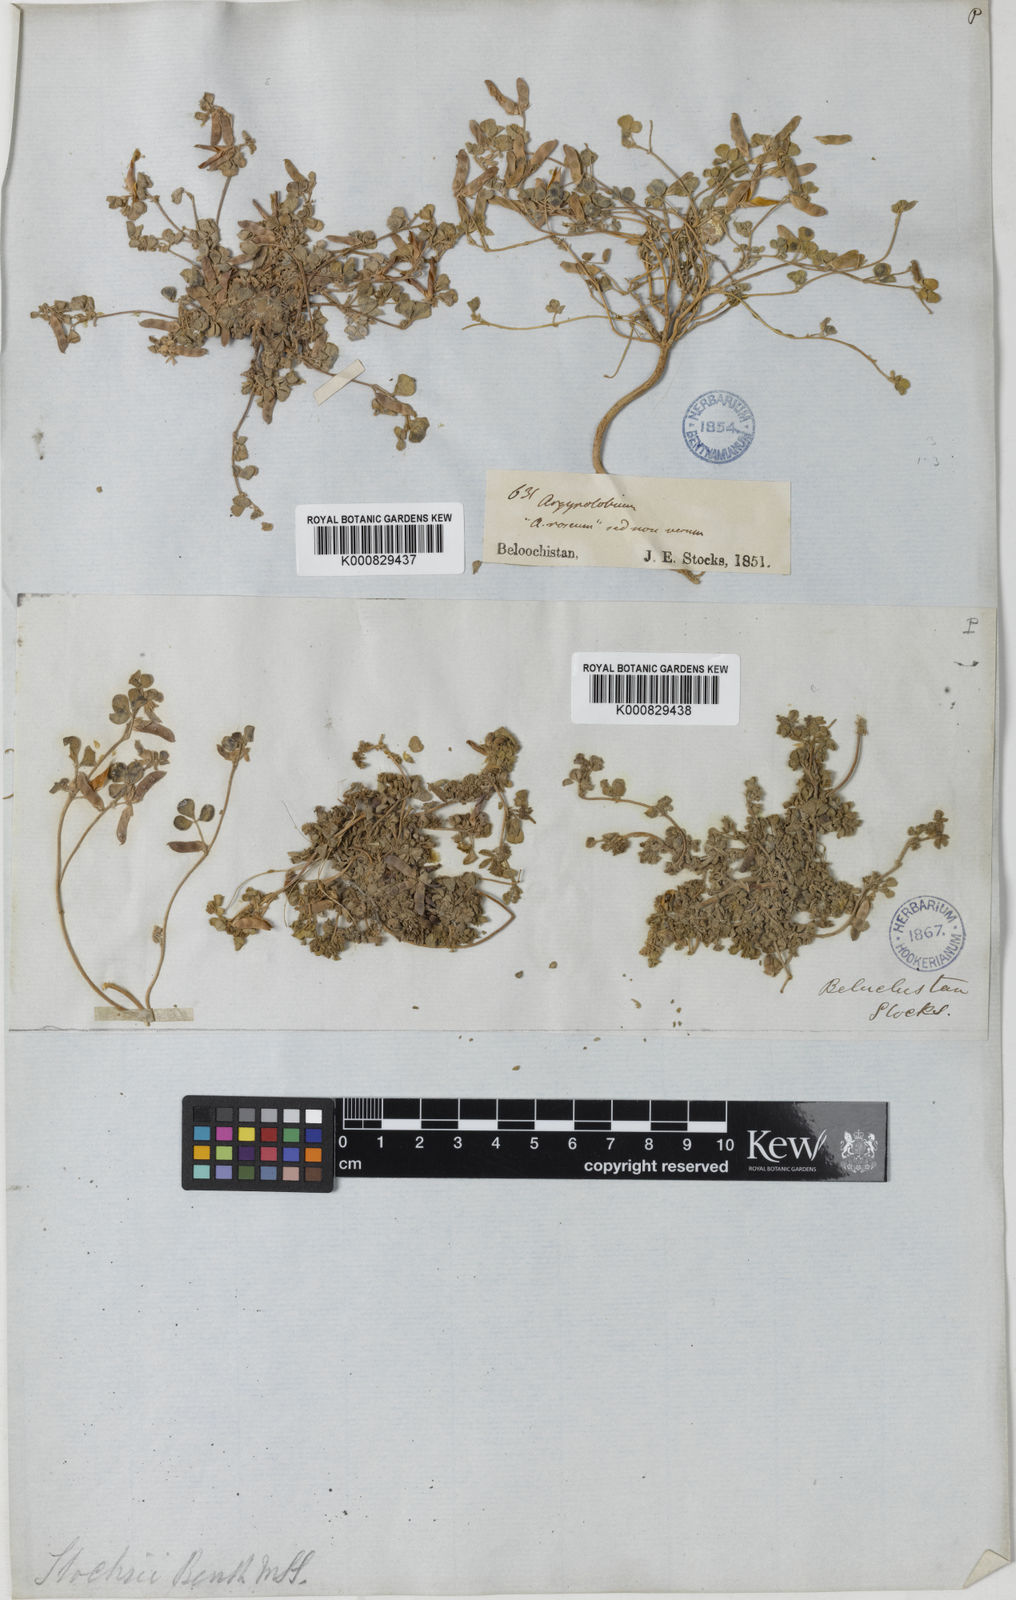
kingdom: Plantae
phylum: Tracheophyta
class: Magnoliopsida
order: Fabales
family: Fabaceae
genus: Argyrolobium
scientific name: Argyrolobium
